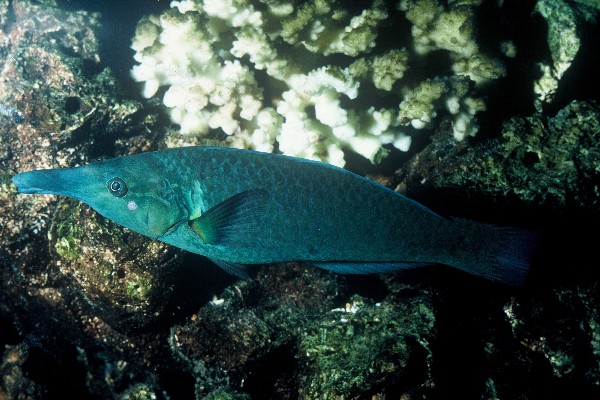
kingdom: Animalia
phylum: Chordata
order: Perciformes
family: Labridae
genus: Gomphosus
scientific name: Gomphosus varius
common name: Bird wrasse
